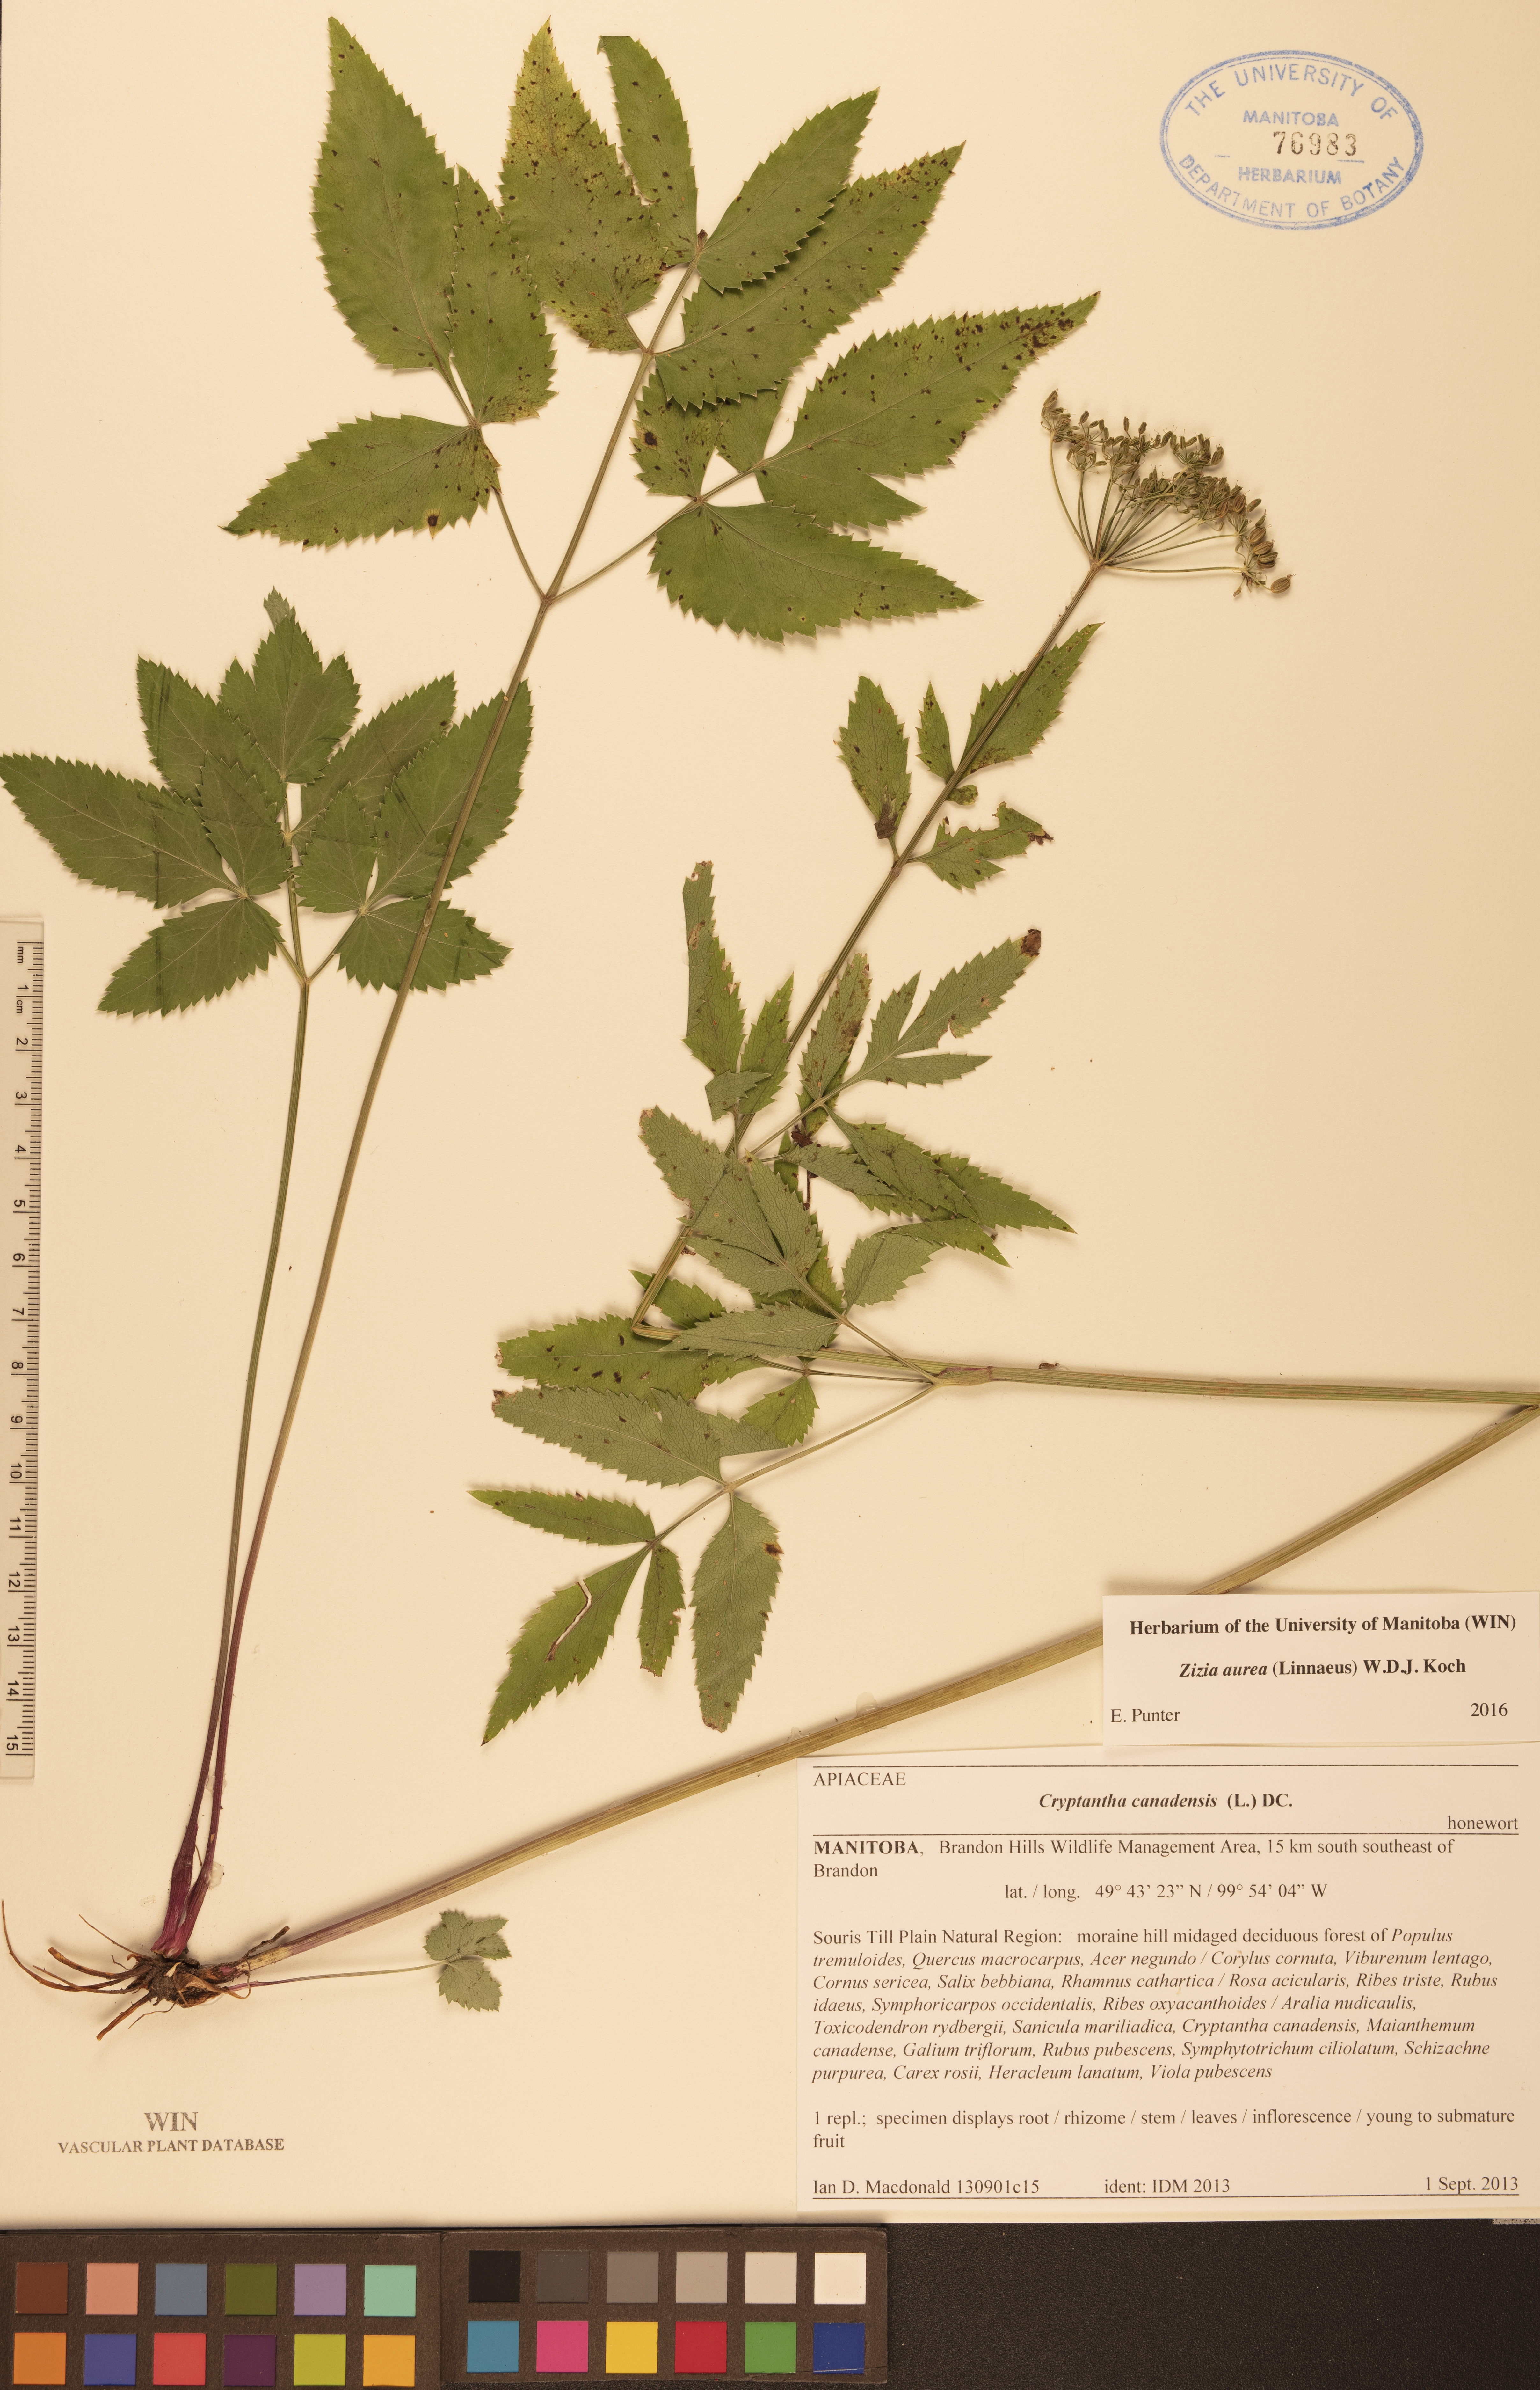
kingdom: Plantae
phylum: Tracheophyta
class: Magnoliopsida
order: Apiales
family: Apiaceae
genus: Zizia
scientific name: Zizia aurea
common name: Golden alexanders
